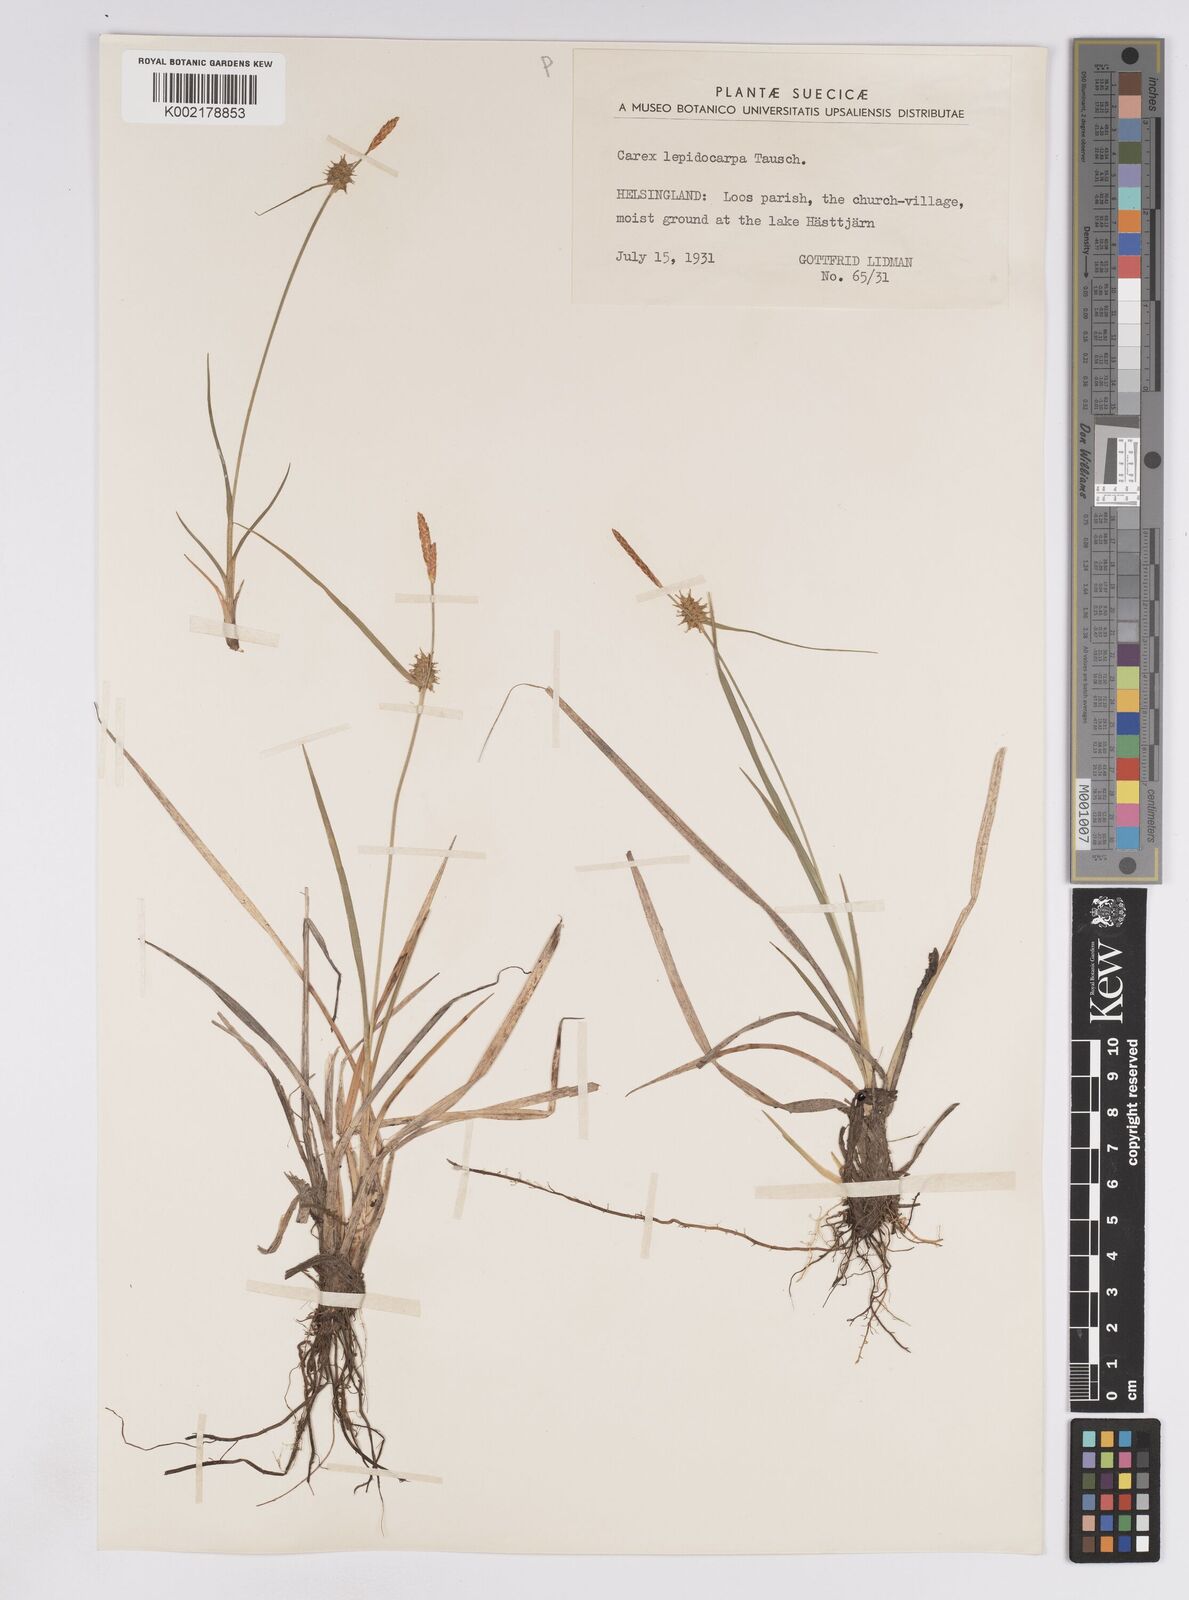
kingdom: Plantae
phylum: Tracheophyta
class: Liliopsida
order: Poales
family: Cyperaceae
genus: Carex
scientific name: Carex lepidocarpa
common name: Long-stalked yellow-sedge
